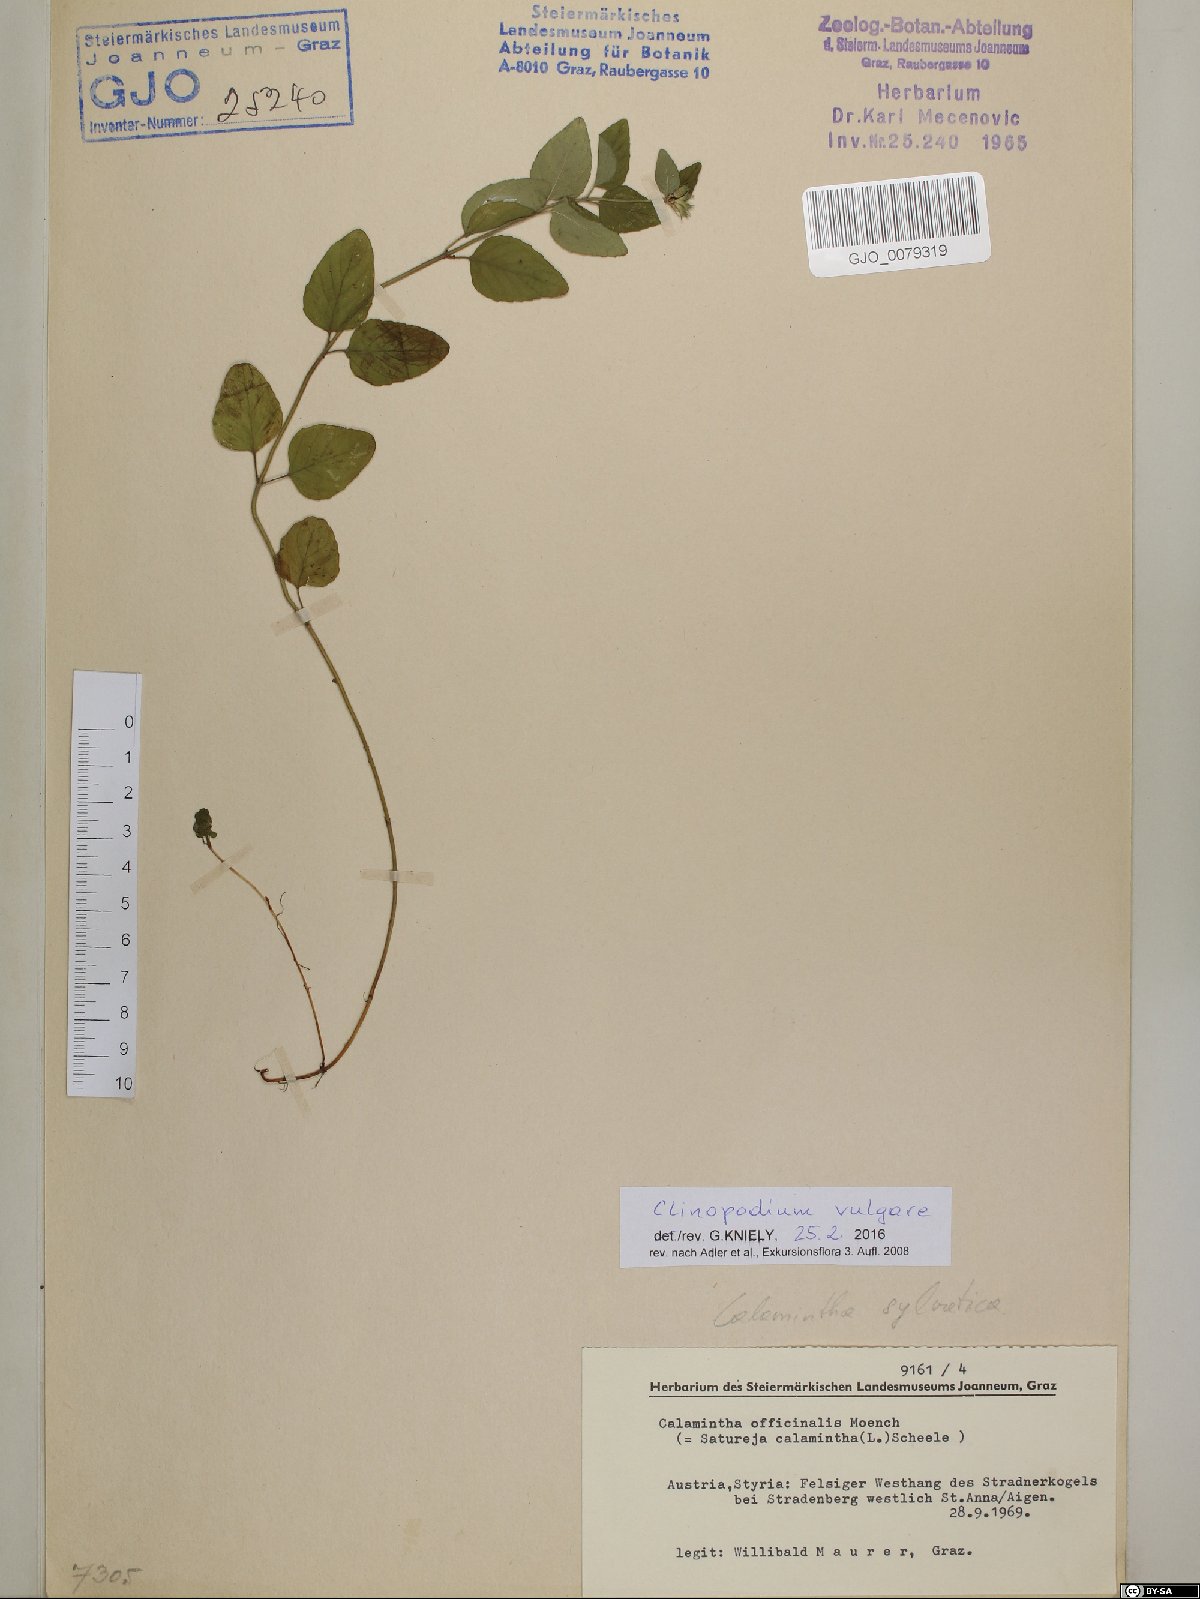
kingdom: Plantae
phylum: Tracheophyta
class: Magnoliopsida
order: Lamiales
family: Lamiaceae
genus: Clinopodium
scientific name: Clinopodium vulgare
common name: Wild basil
